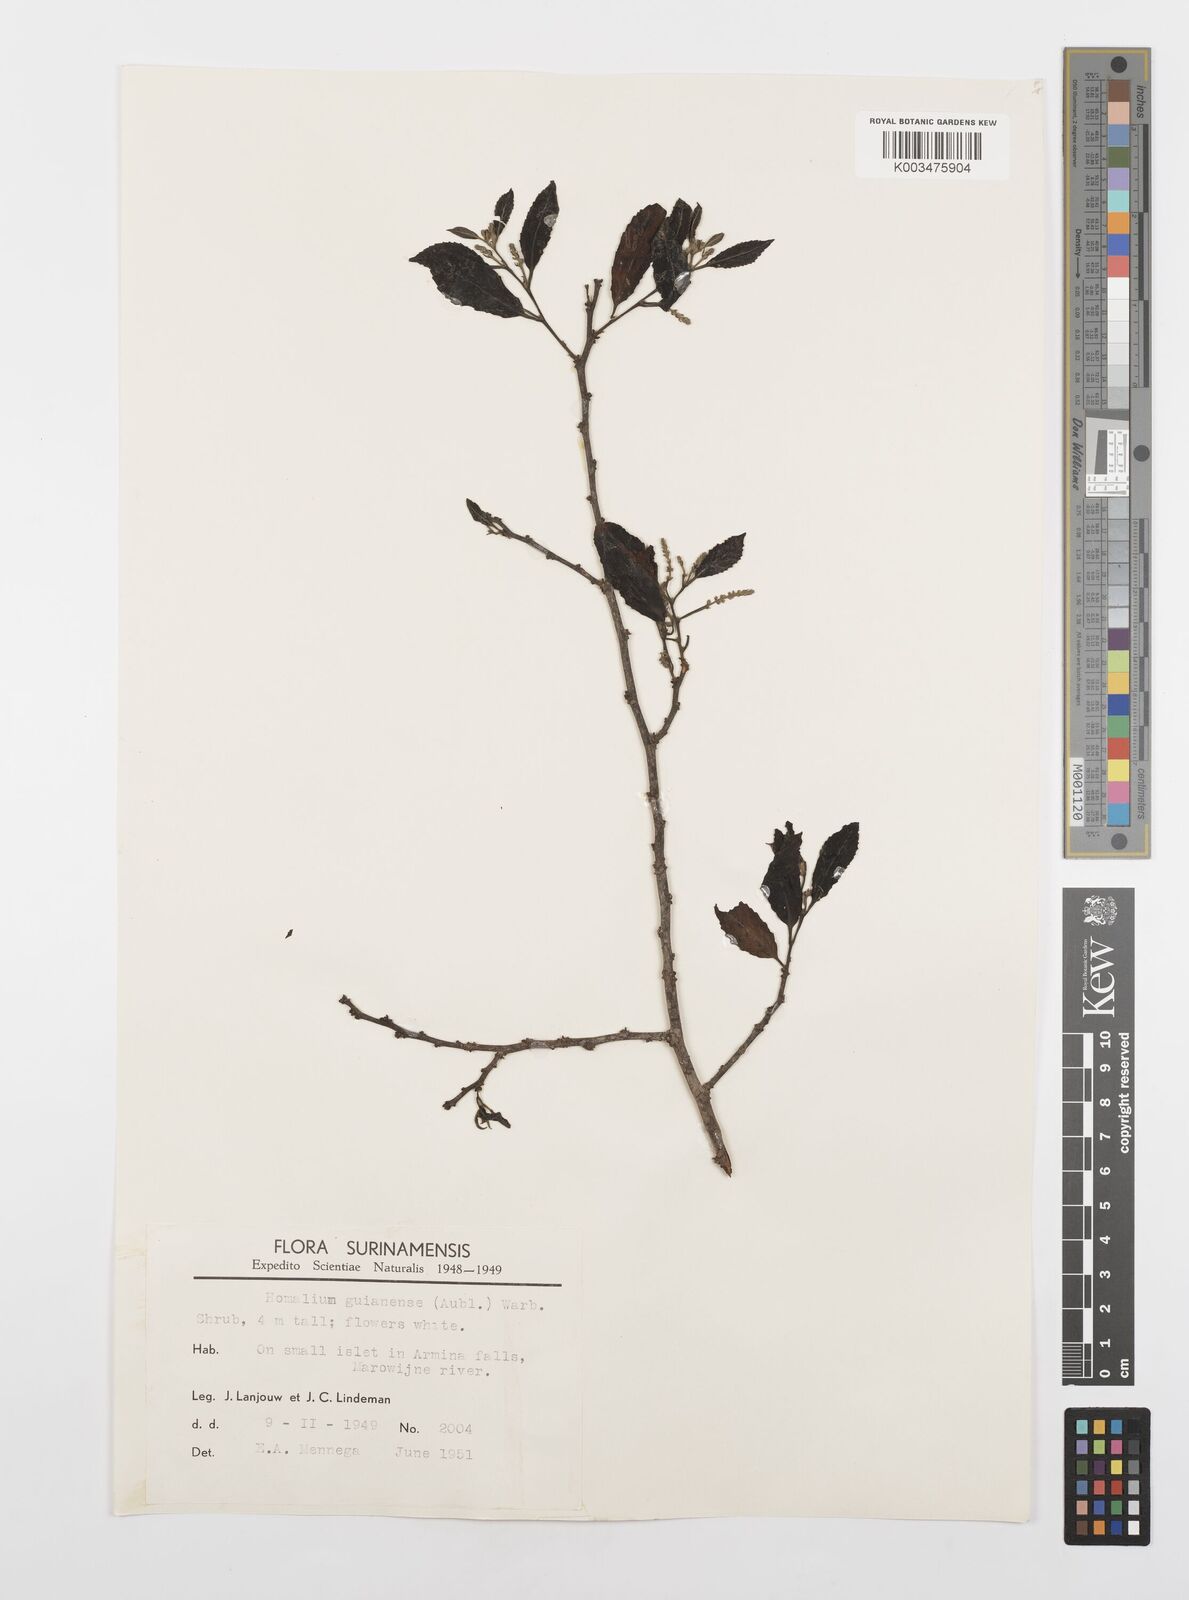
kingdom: Plantae
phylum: Tracheophyta
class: Magnoliopsida
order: Malpighiales
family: Salicaceae
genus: Homalium
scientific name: Homalium guianense
